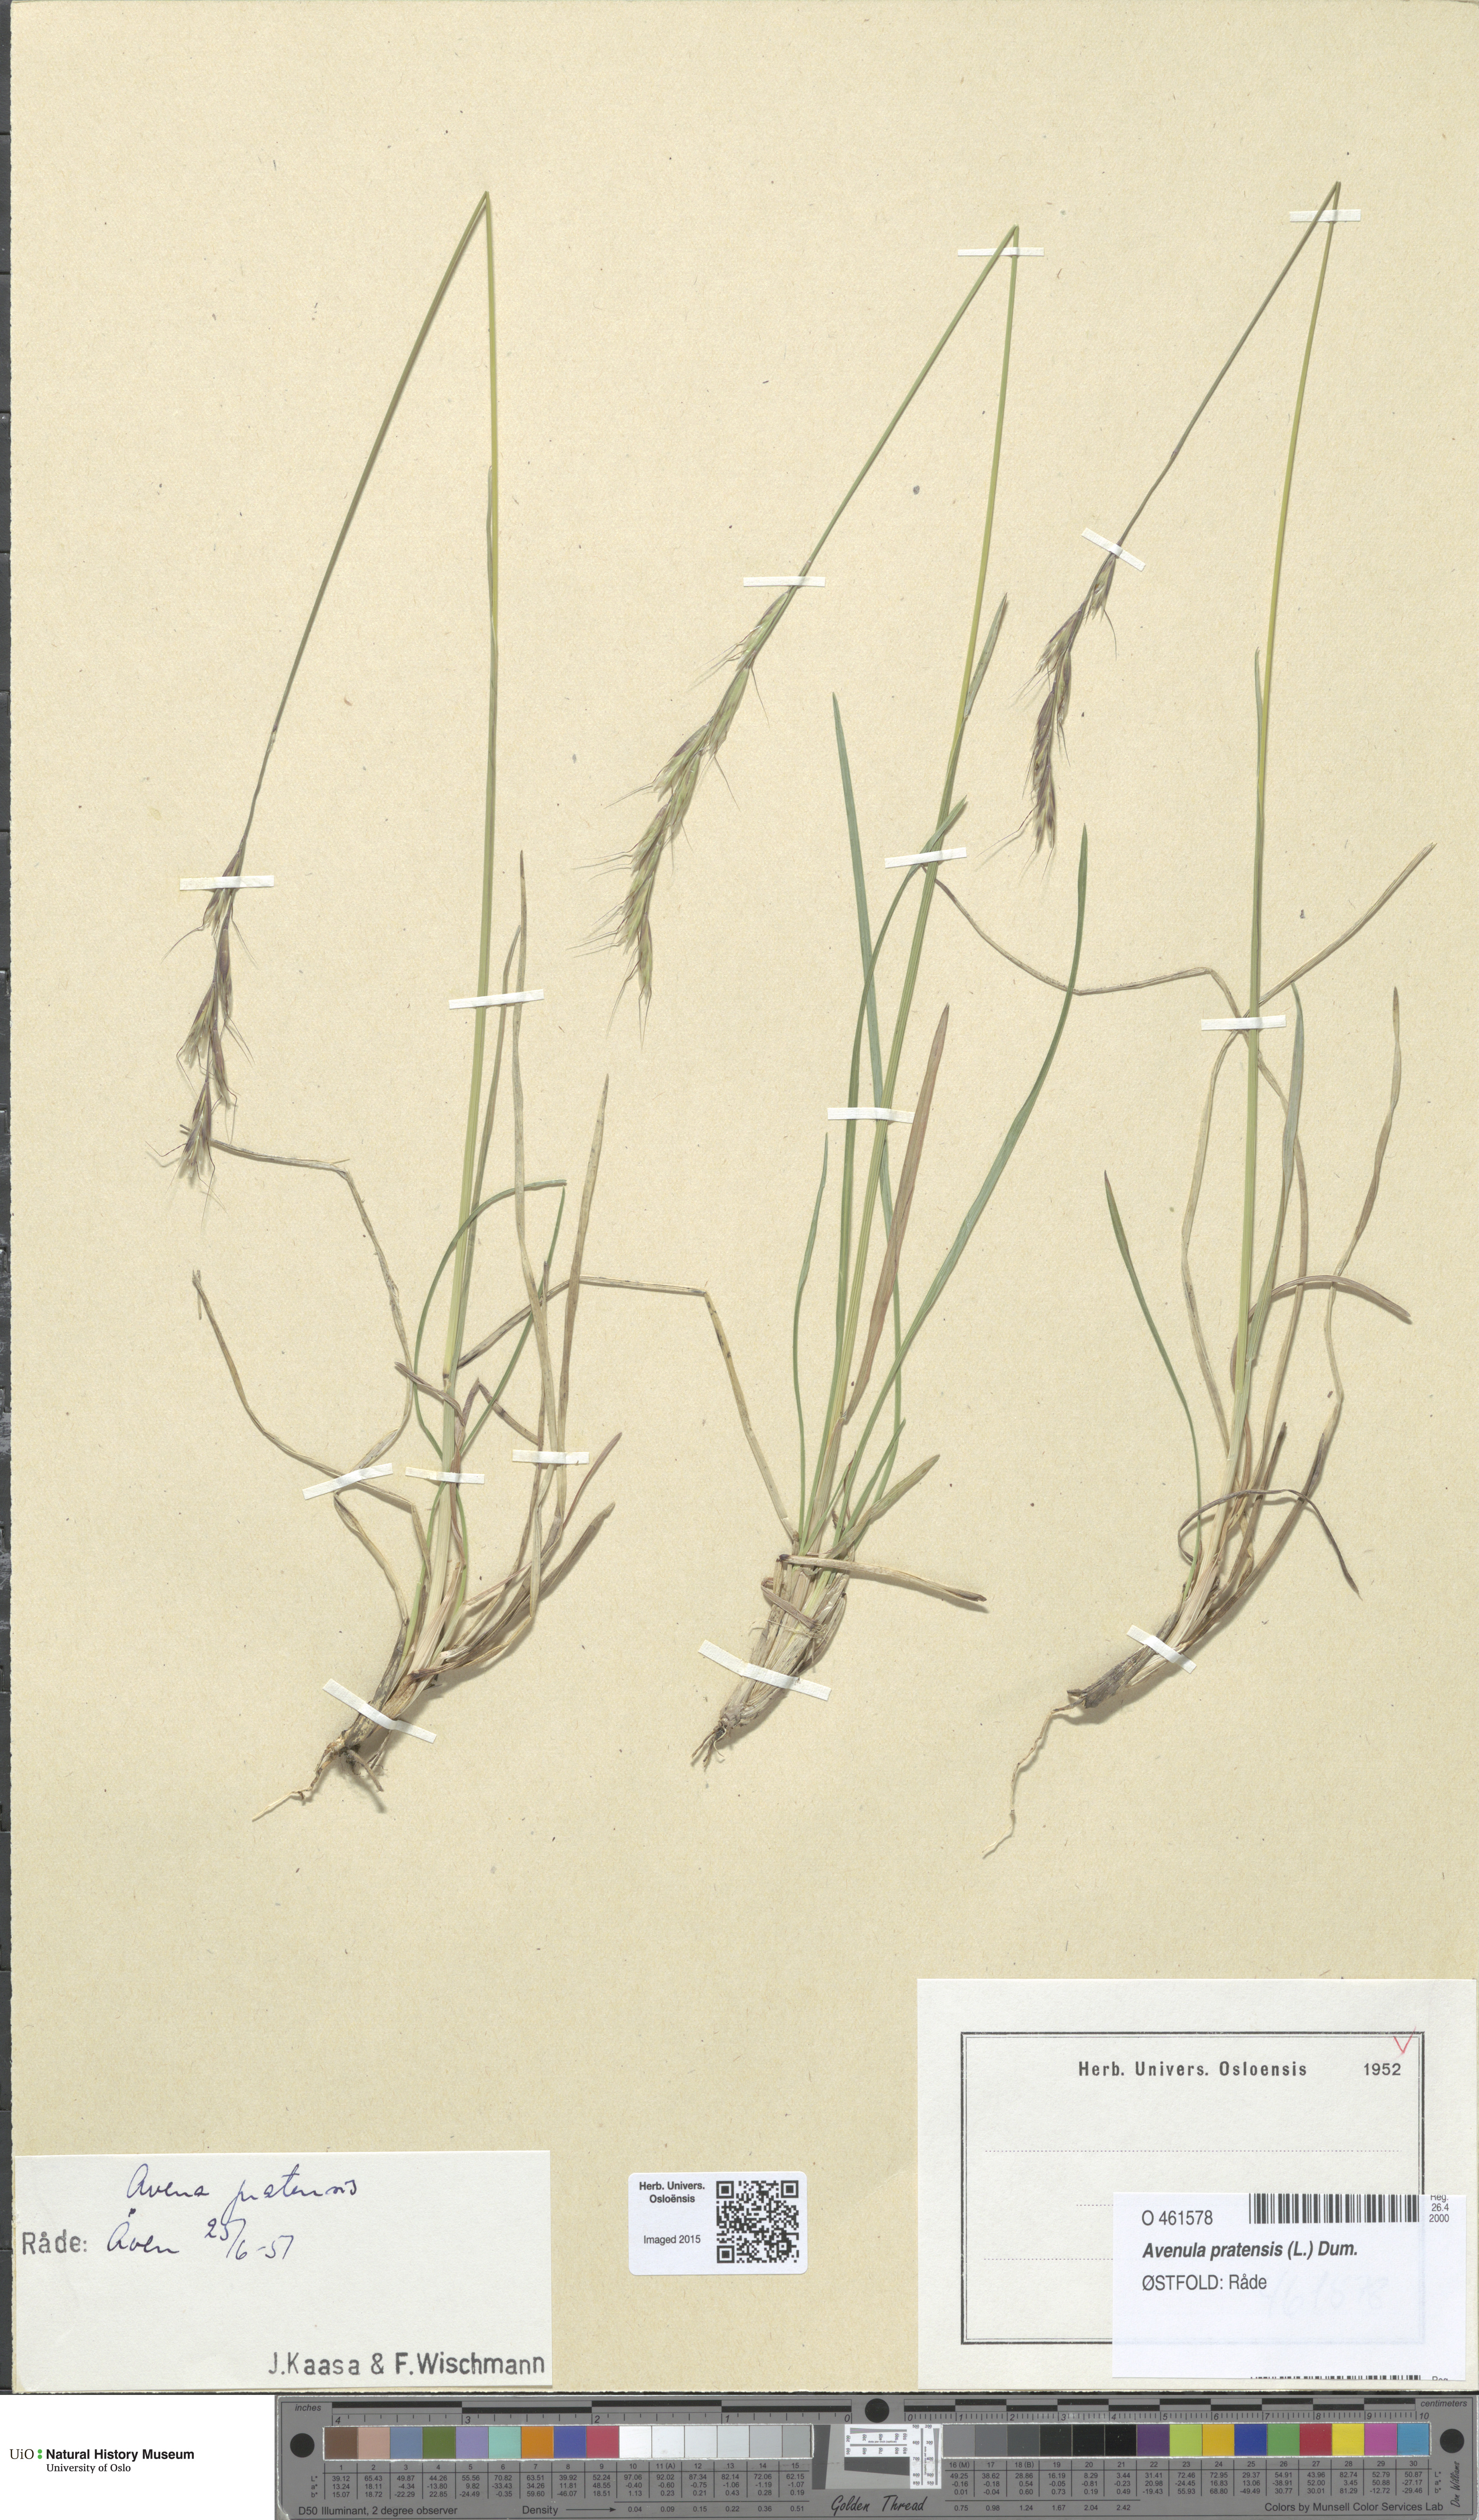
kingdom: Plantae
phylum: Tracheophyta
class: Liliopsida
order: Poales
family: Poaceae
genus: Helictochloa
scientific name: Helictochloa pratensis
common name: Meadow oat grass
